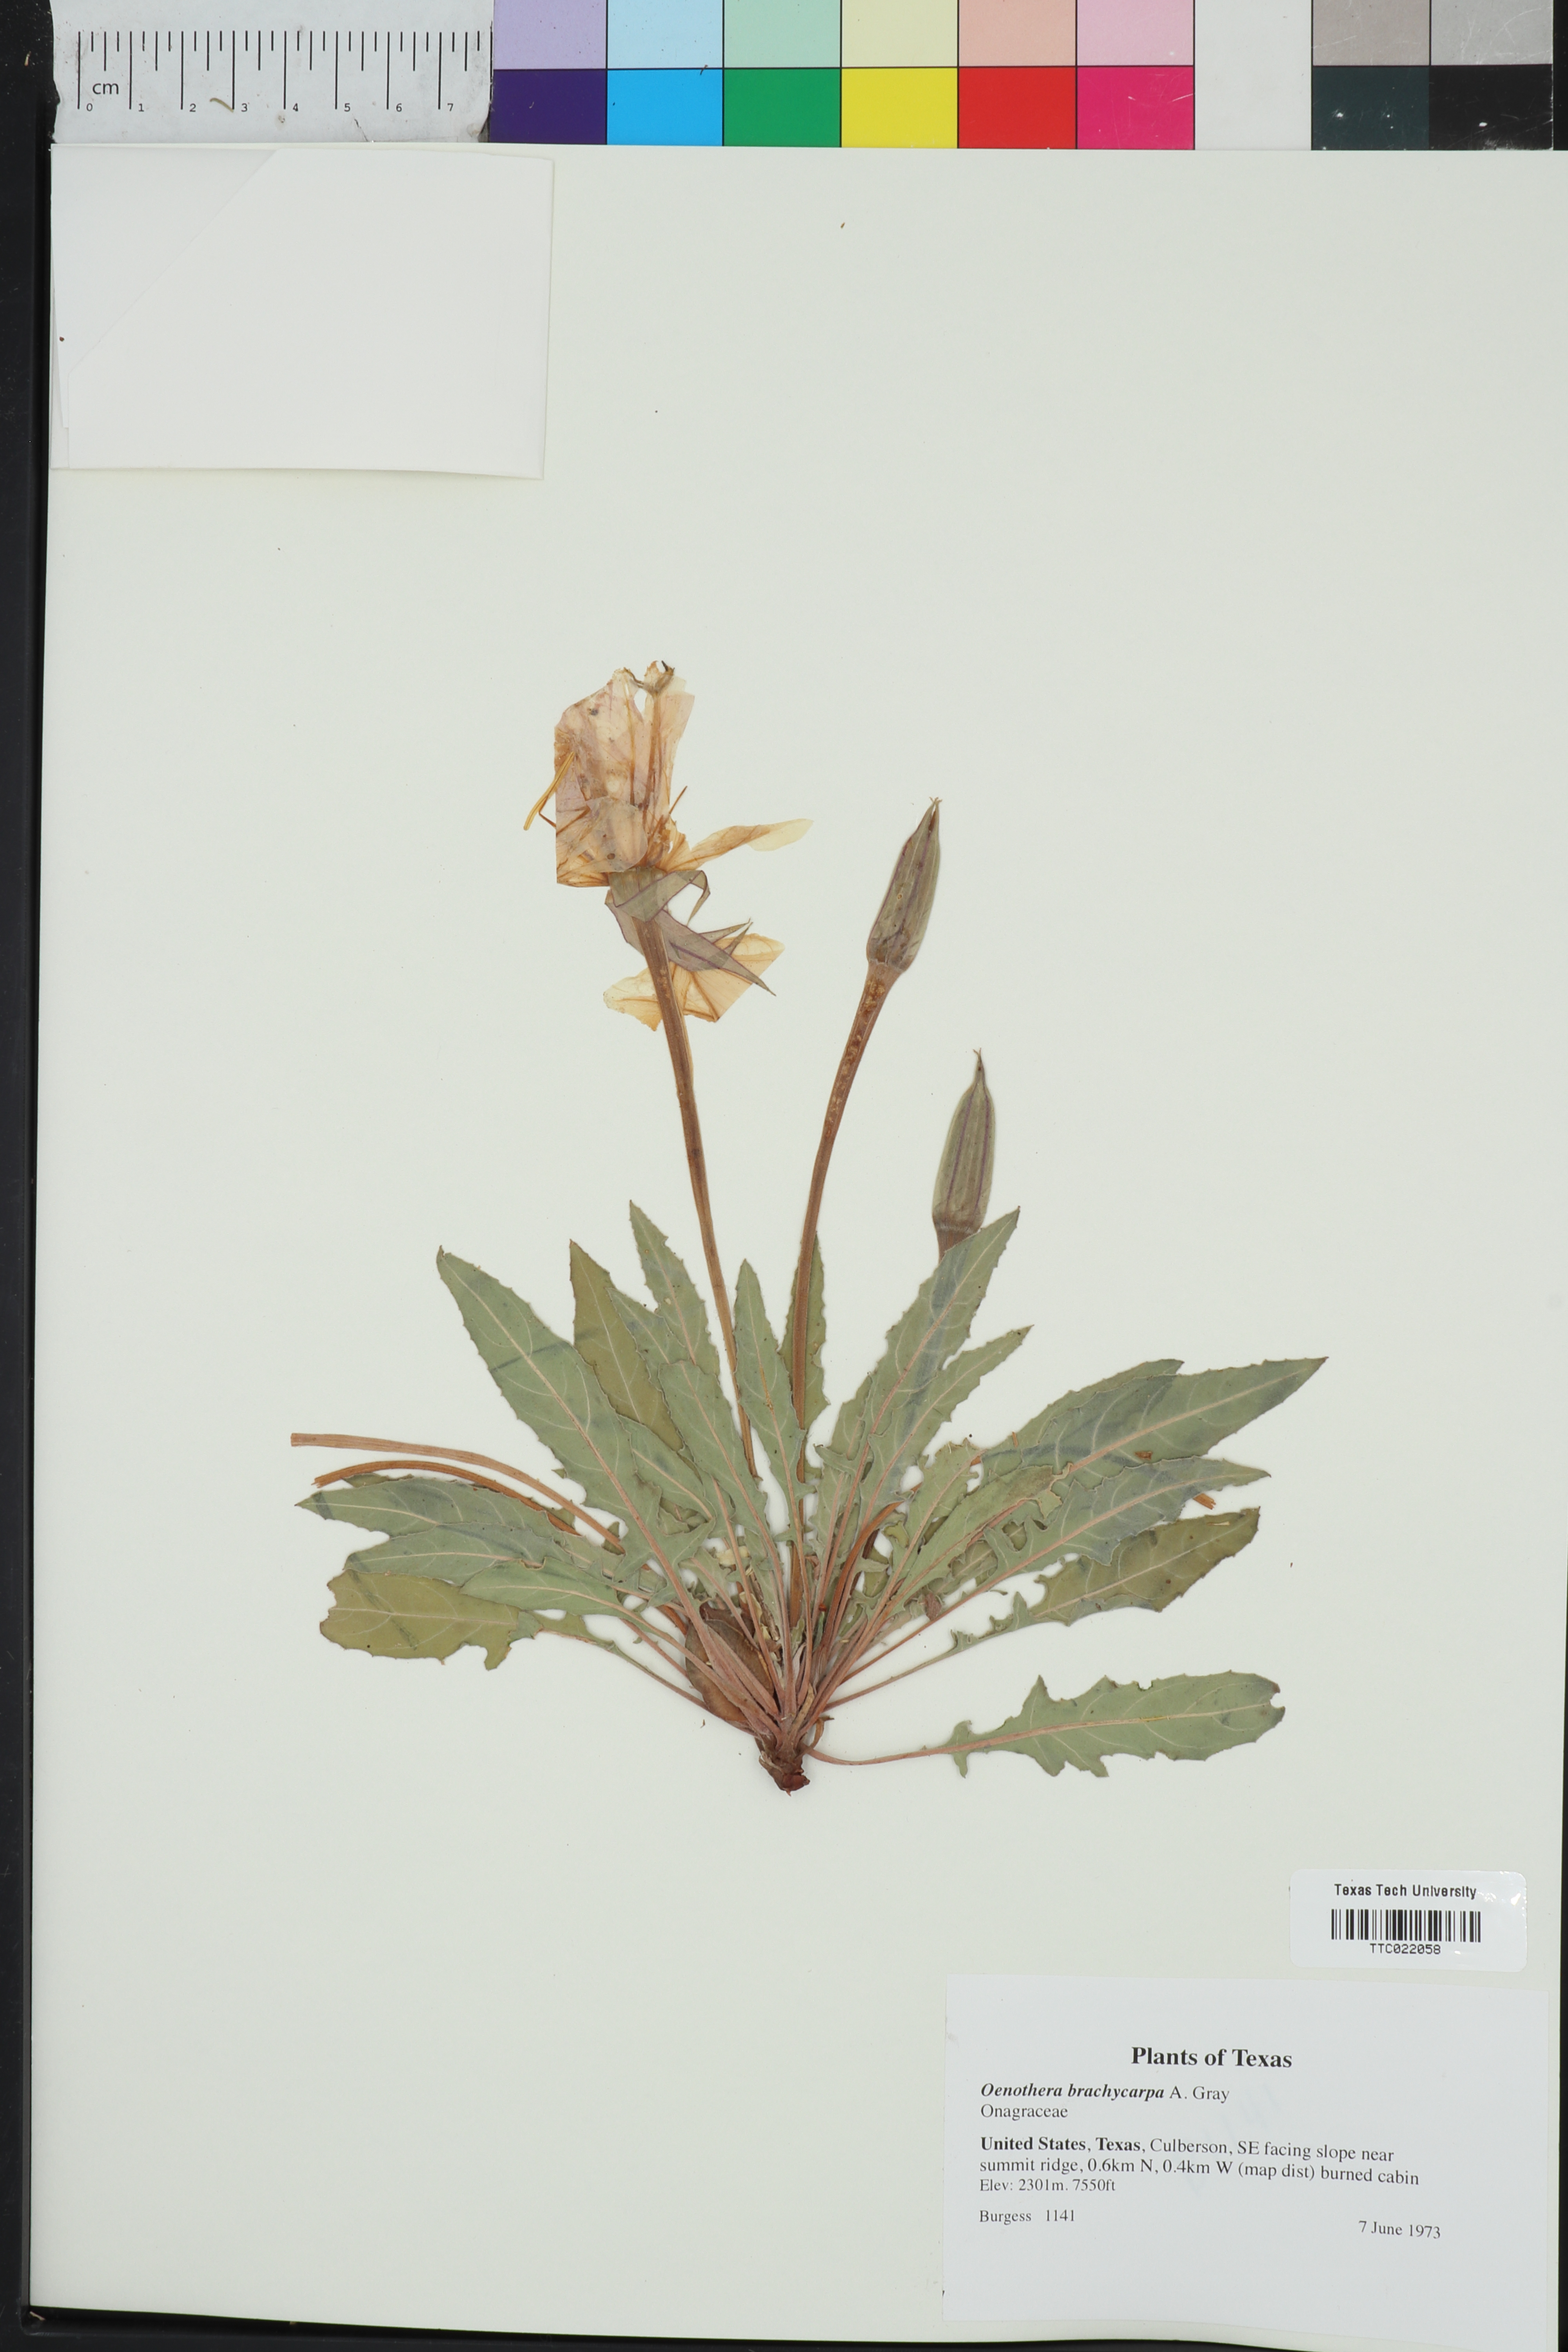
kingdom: Plantae
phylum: Tracheophyta
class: Magnoliopsida
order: Myrtales
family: Onagraceae
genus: Oenothera
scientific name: Oenothera brachycarpa
